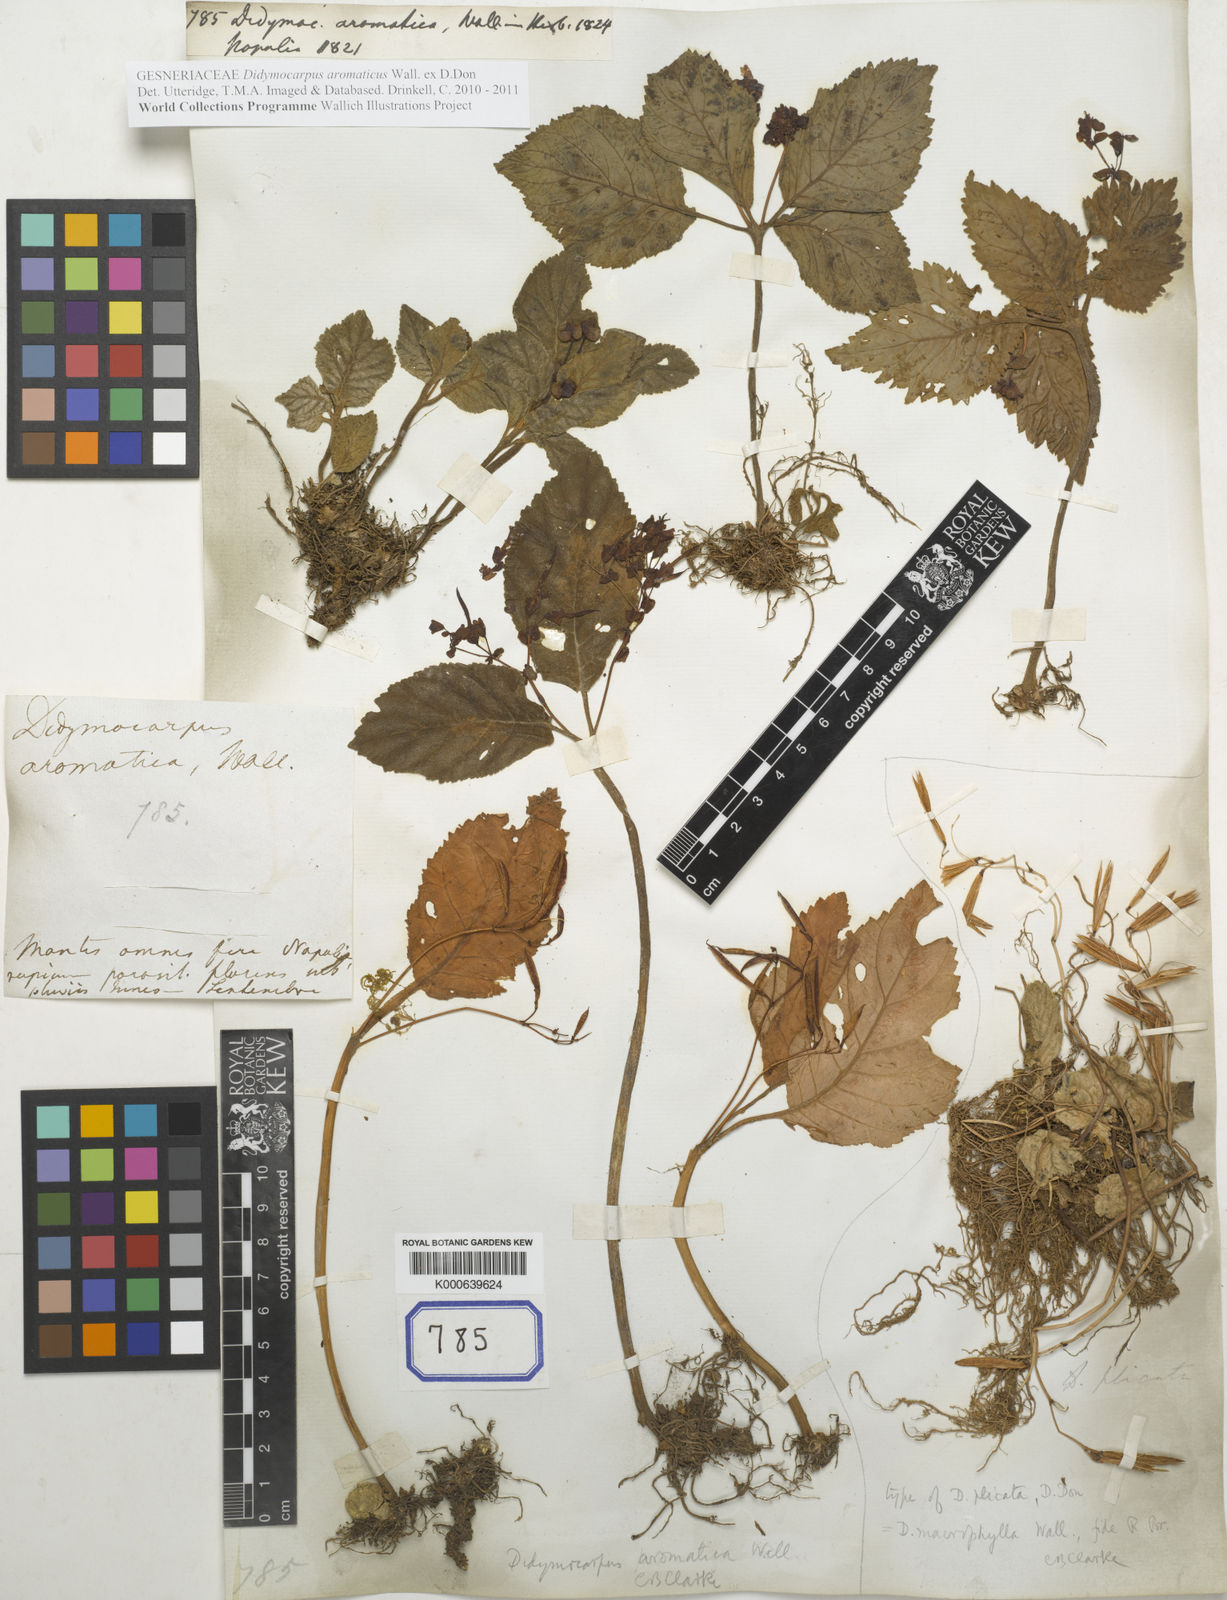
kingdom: Plantae
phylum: Tracheophyta
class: Magnoliopsida
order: Lamiales
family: Gesneriaceae
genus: Didymocarpus
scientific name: Didymocarpus aromaticus
